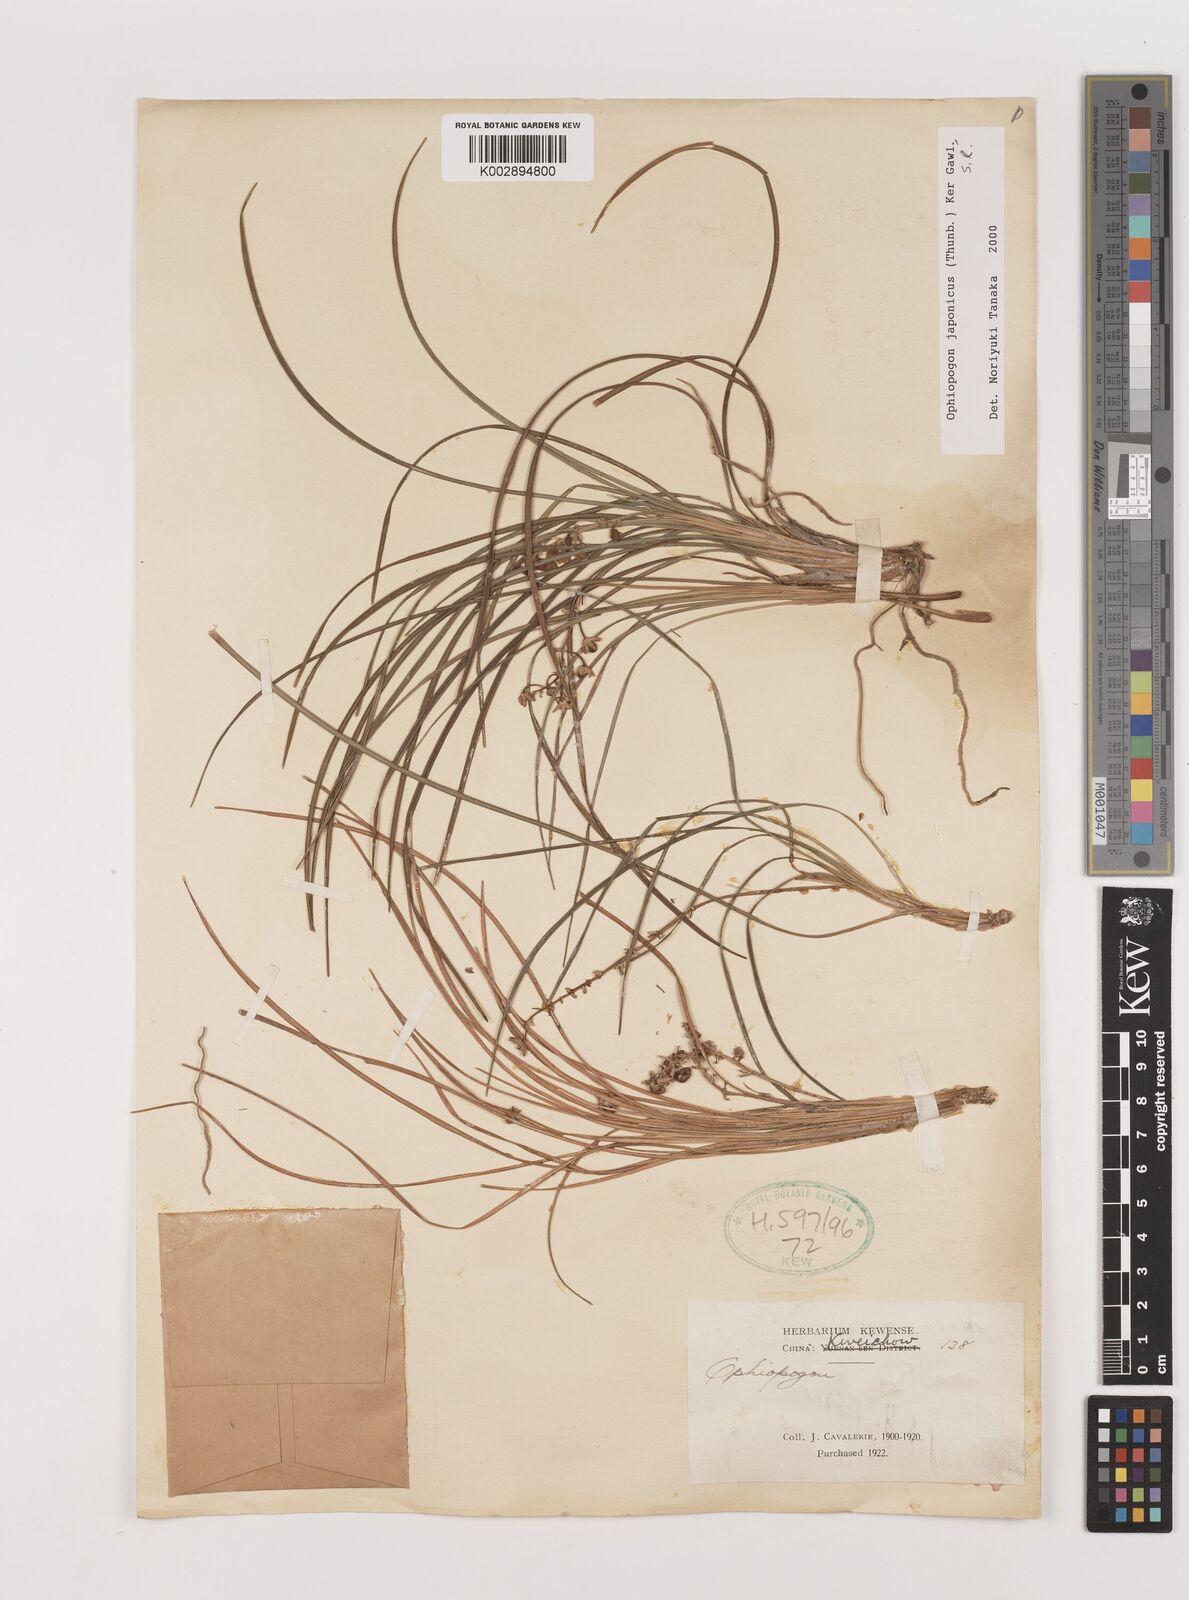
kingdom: Plantae
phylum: Tracheophyta
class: Liliopsida
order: Asparagales
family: Asparagaceae
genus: Ophiopogon
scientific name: Ophiopogon japonicus
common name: Dwarf lilyturf
